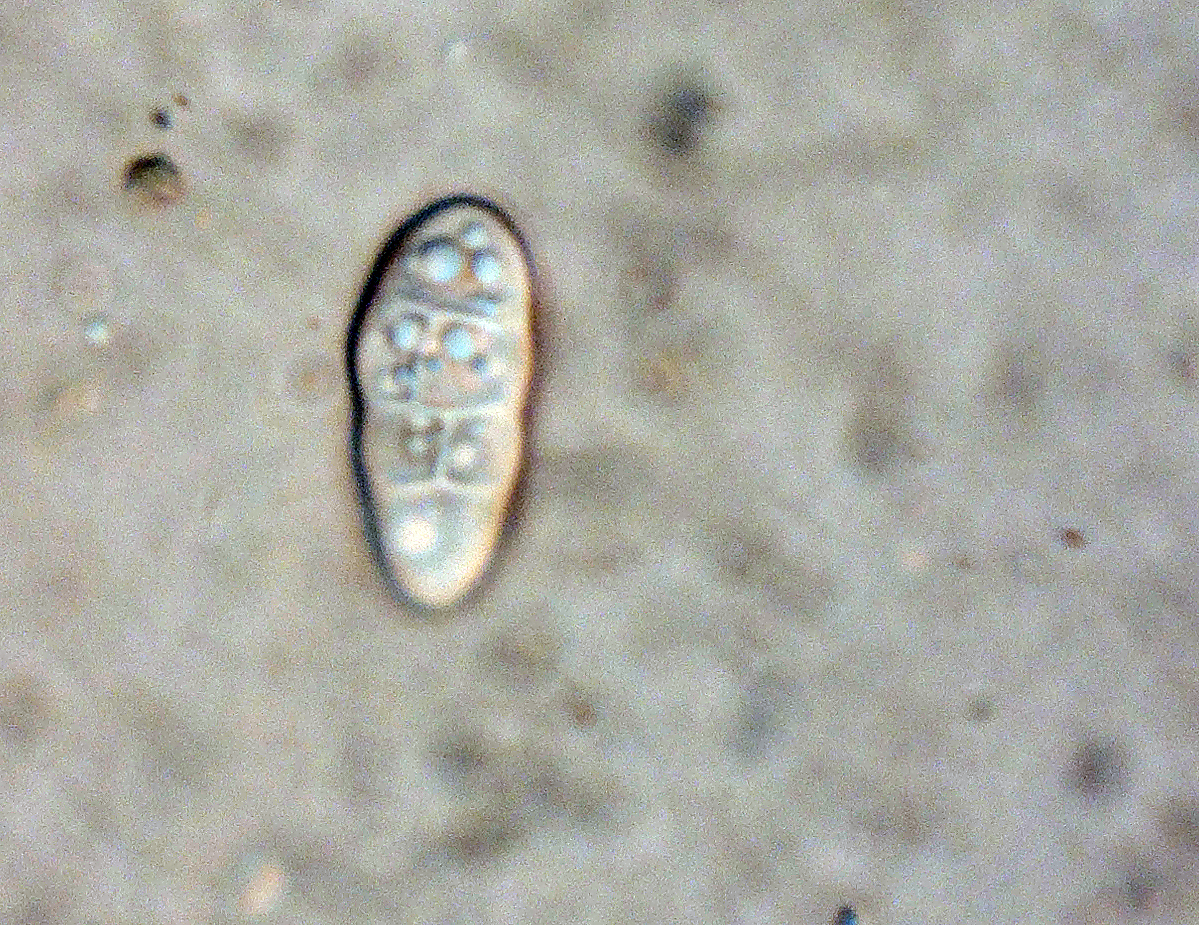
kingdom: Fungi
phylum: Ascomycota
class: Dothideomycetes
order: Hysteriales
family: Hysteriaceae
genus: Hysterobrevium
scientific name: Hysterobrevium smilacis
